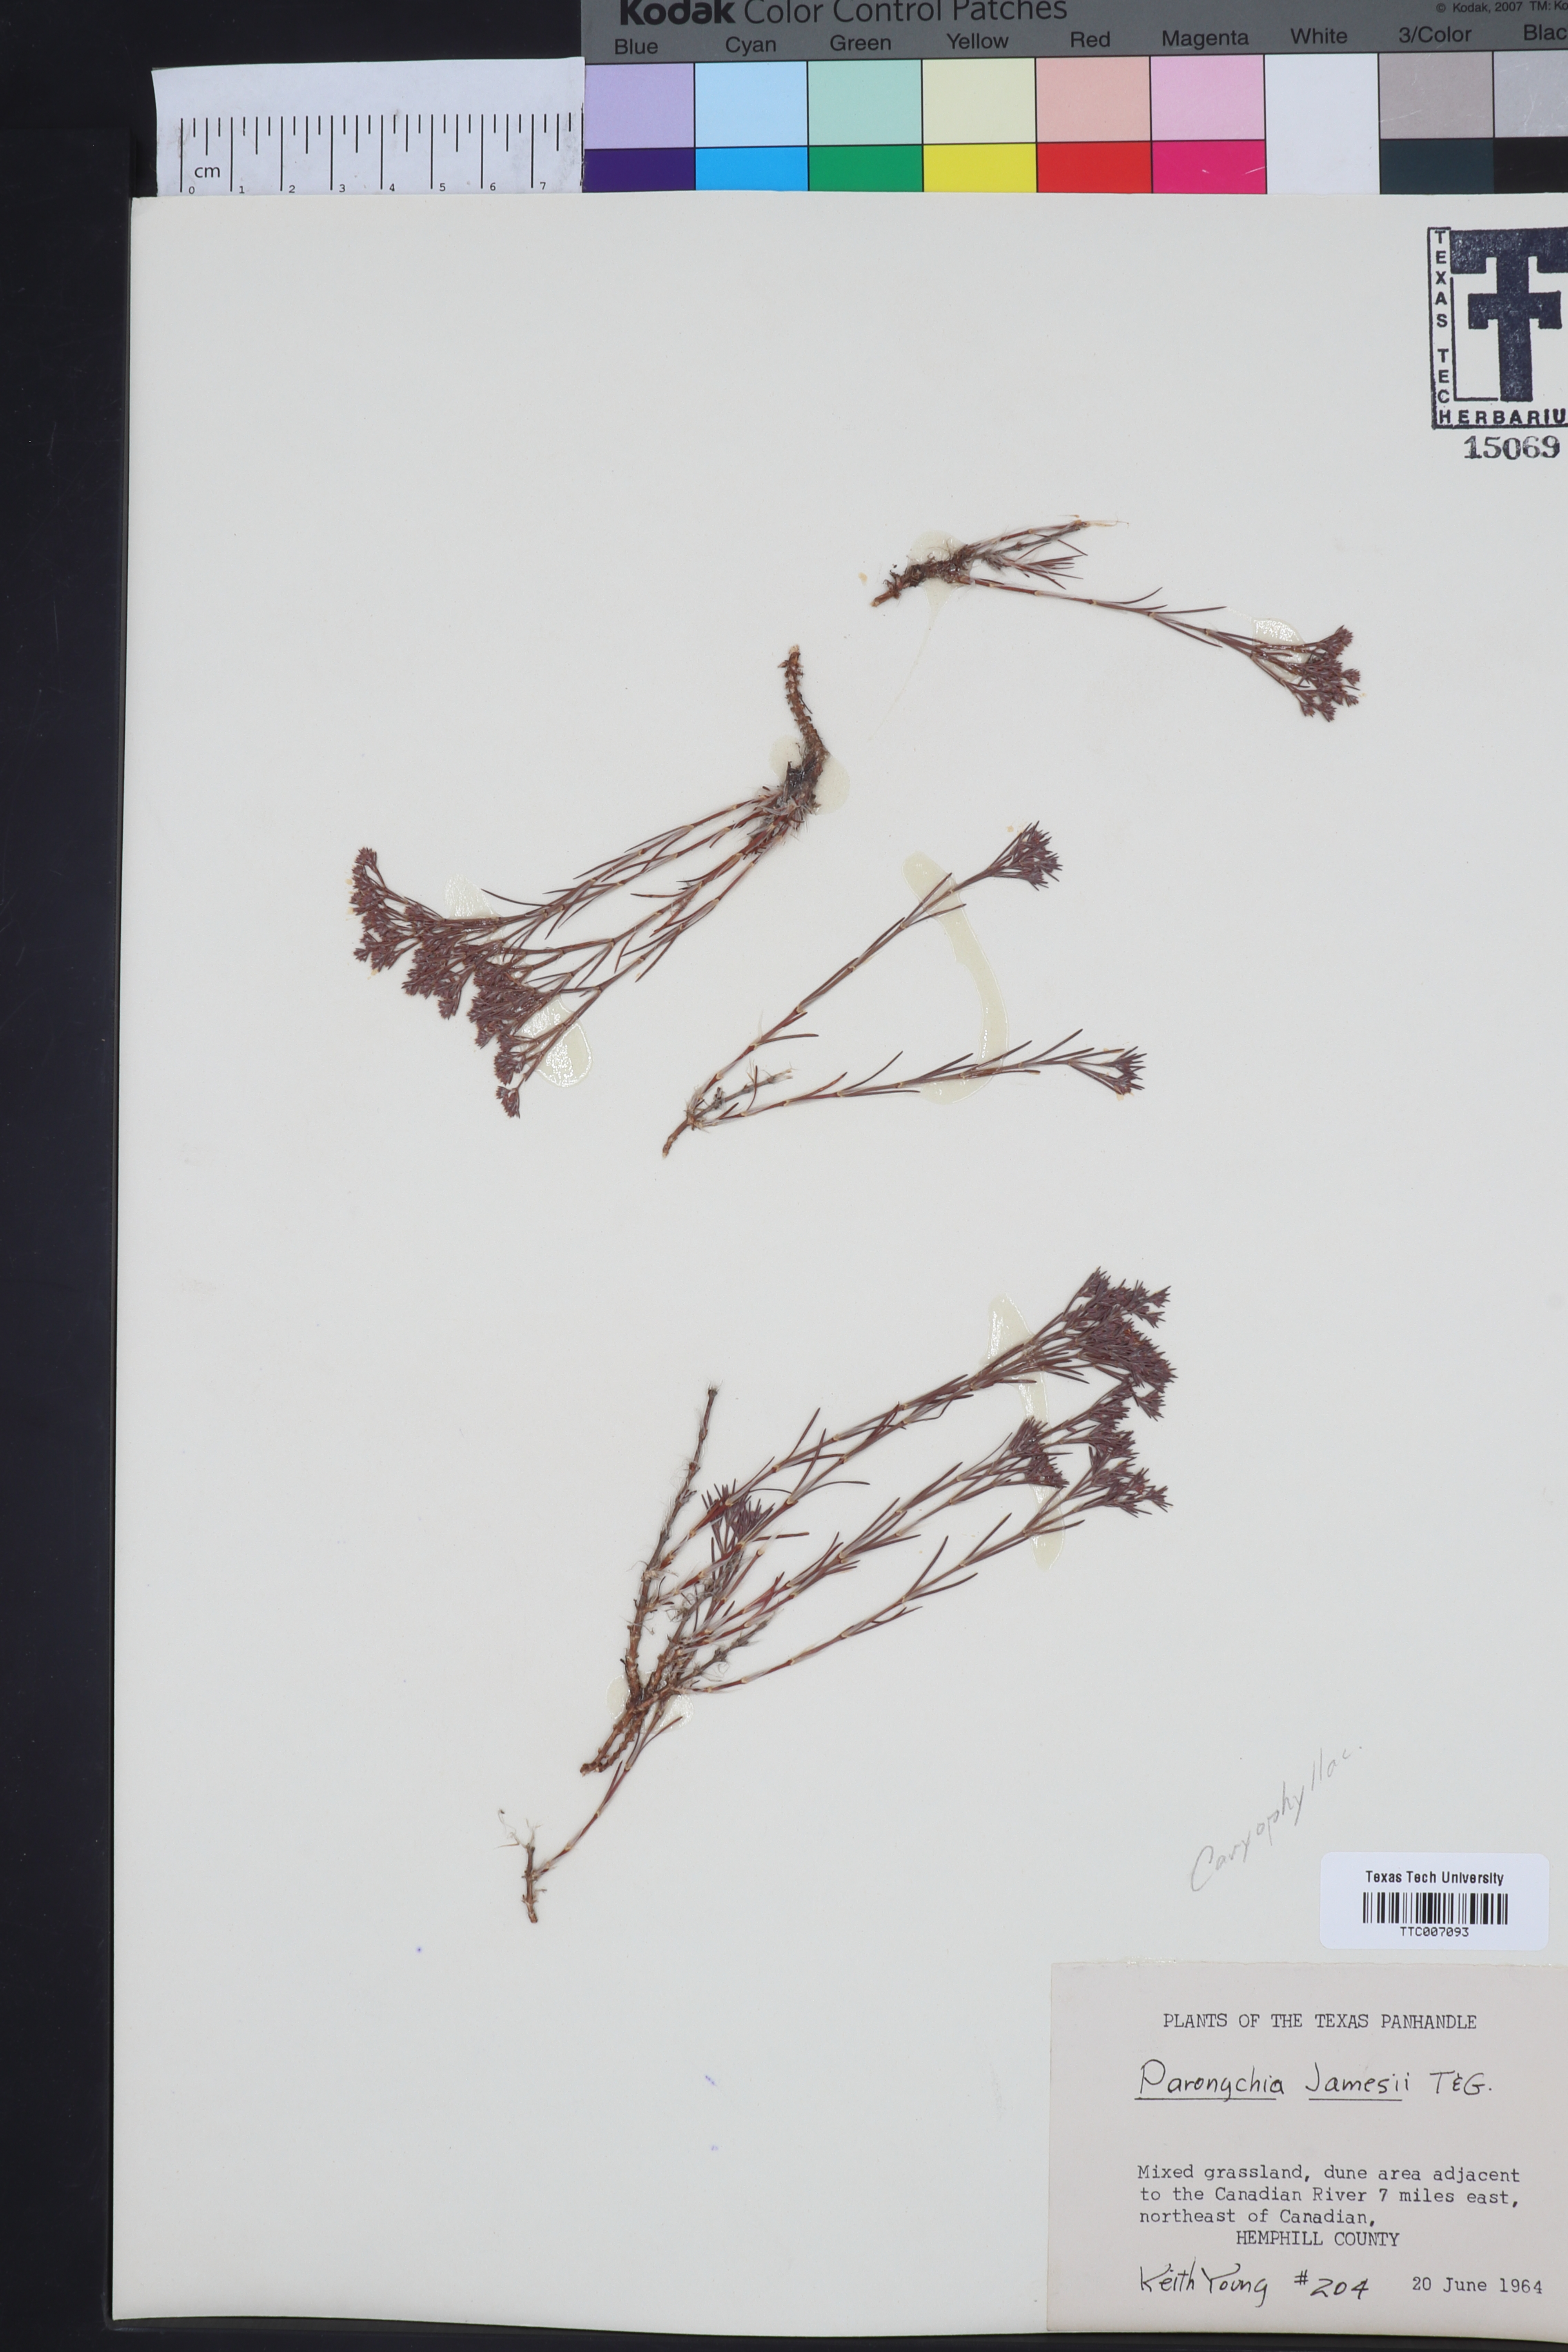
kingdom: Plantae
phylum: Tracheophyta
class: Magnoliopsida
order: Caryophyllales
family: Caryophyllaceae
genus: Paronychia
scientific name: Paronychia jamesii
